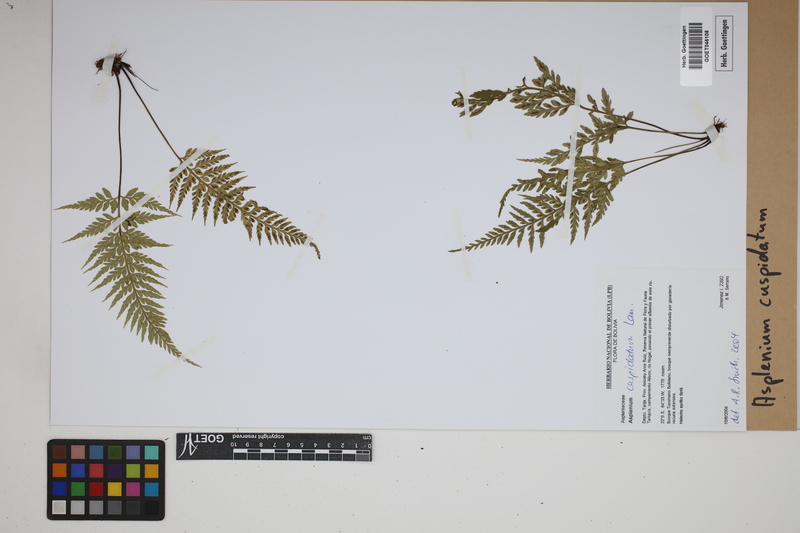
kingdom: Plantae
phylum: Tracheophyta
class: Polypodiopsida
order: Polypodiales
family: Aspleniaceae
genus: Asplenium
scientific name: Asplenium cuspidatum
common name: Eared spleenwort
